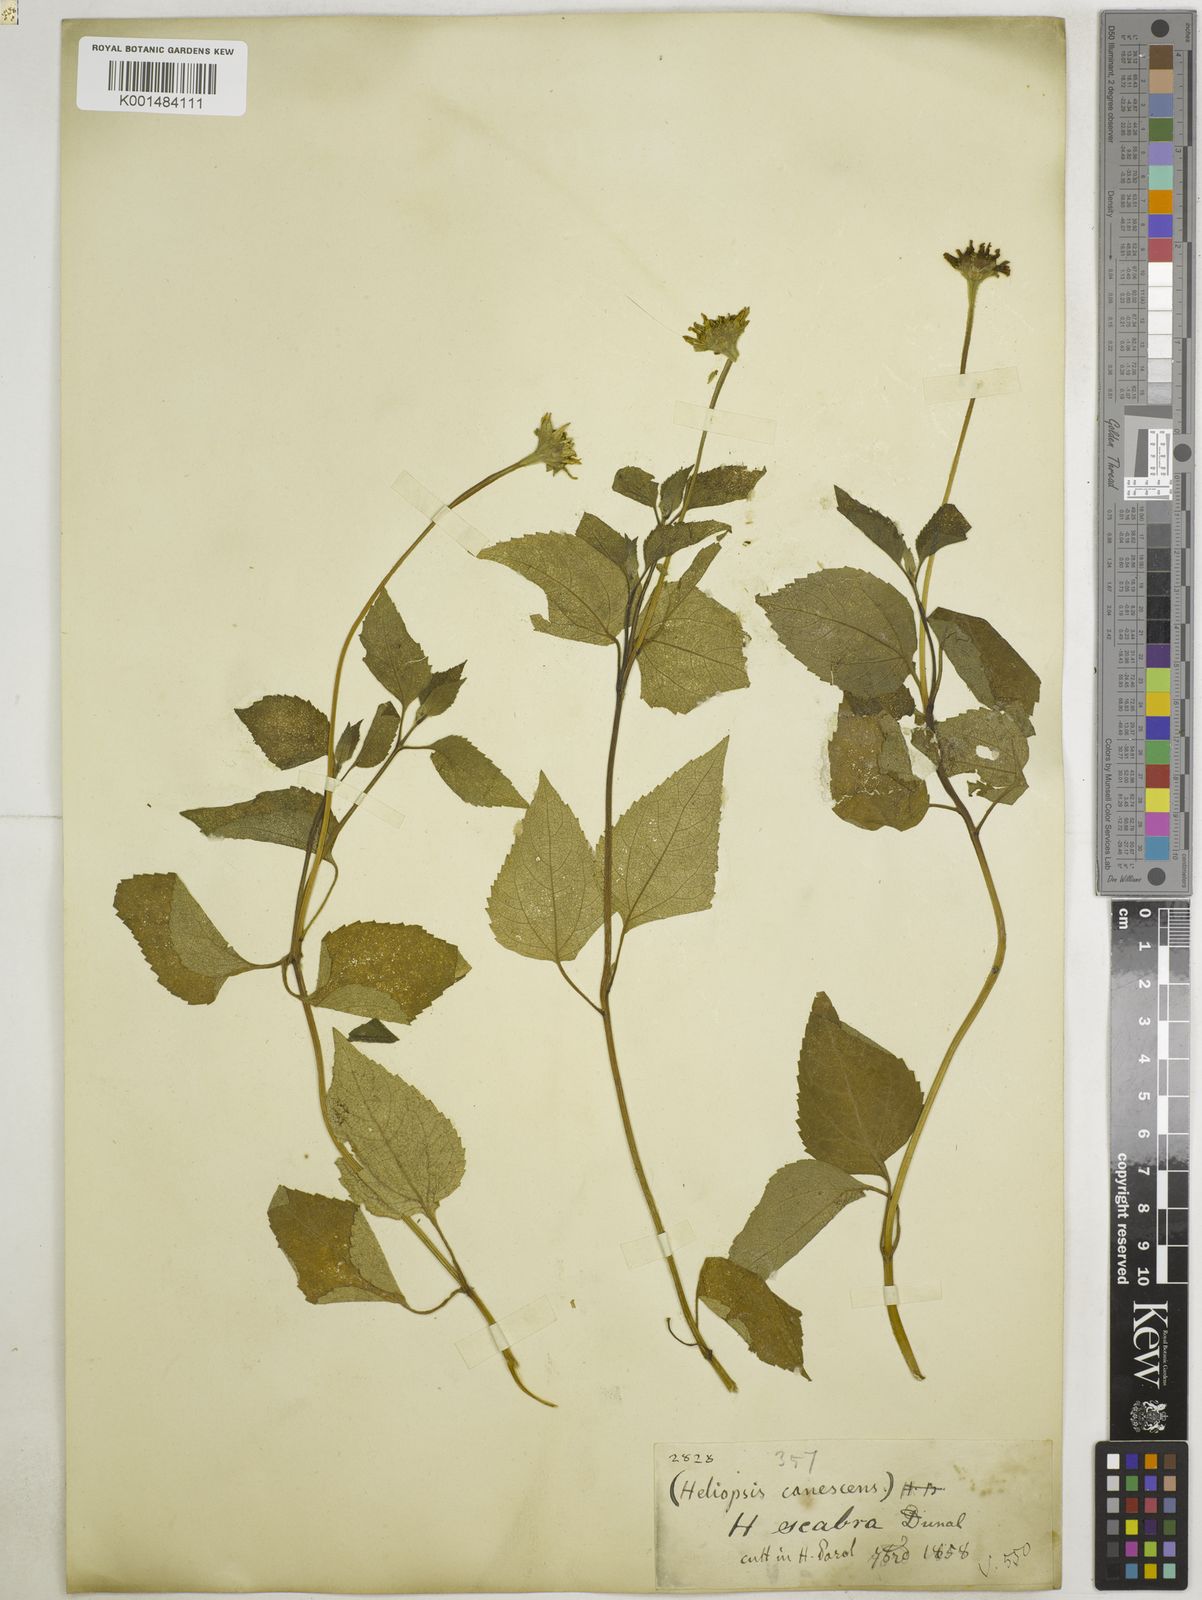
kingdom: Plantae
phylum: Tracheophyta
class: Magnoliopsida
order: Asterales
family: Asteraceae
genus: Bidens
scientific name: Bidens laevis
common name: Larger bur-marigold
